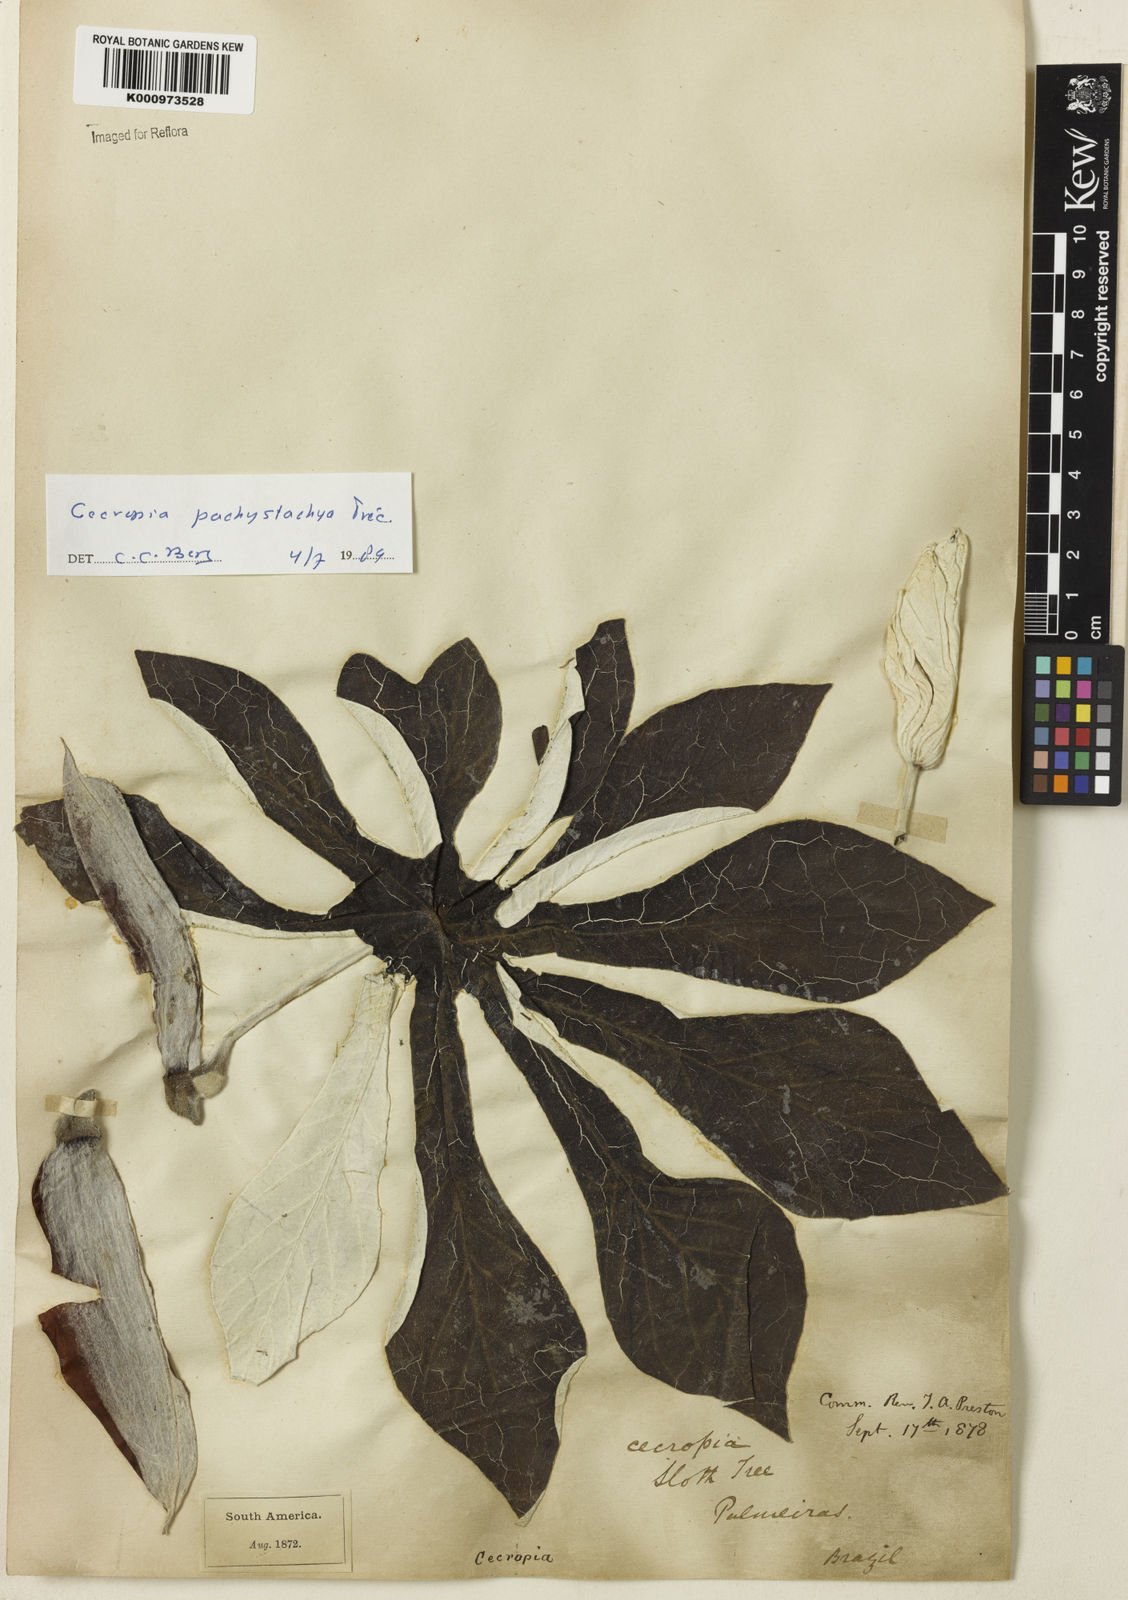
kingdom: Plantae
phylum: Tracheophyta
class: Magnoliopsida
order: Rosales
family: Urticaceae
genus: Cecropia
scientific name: Cecropia
